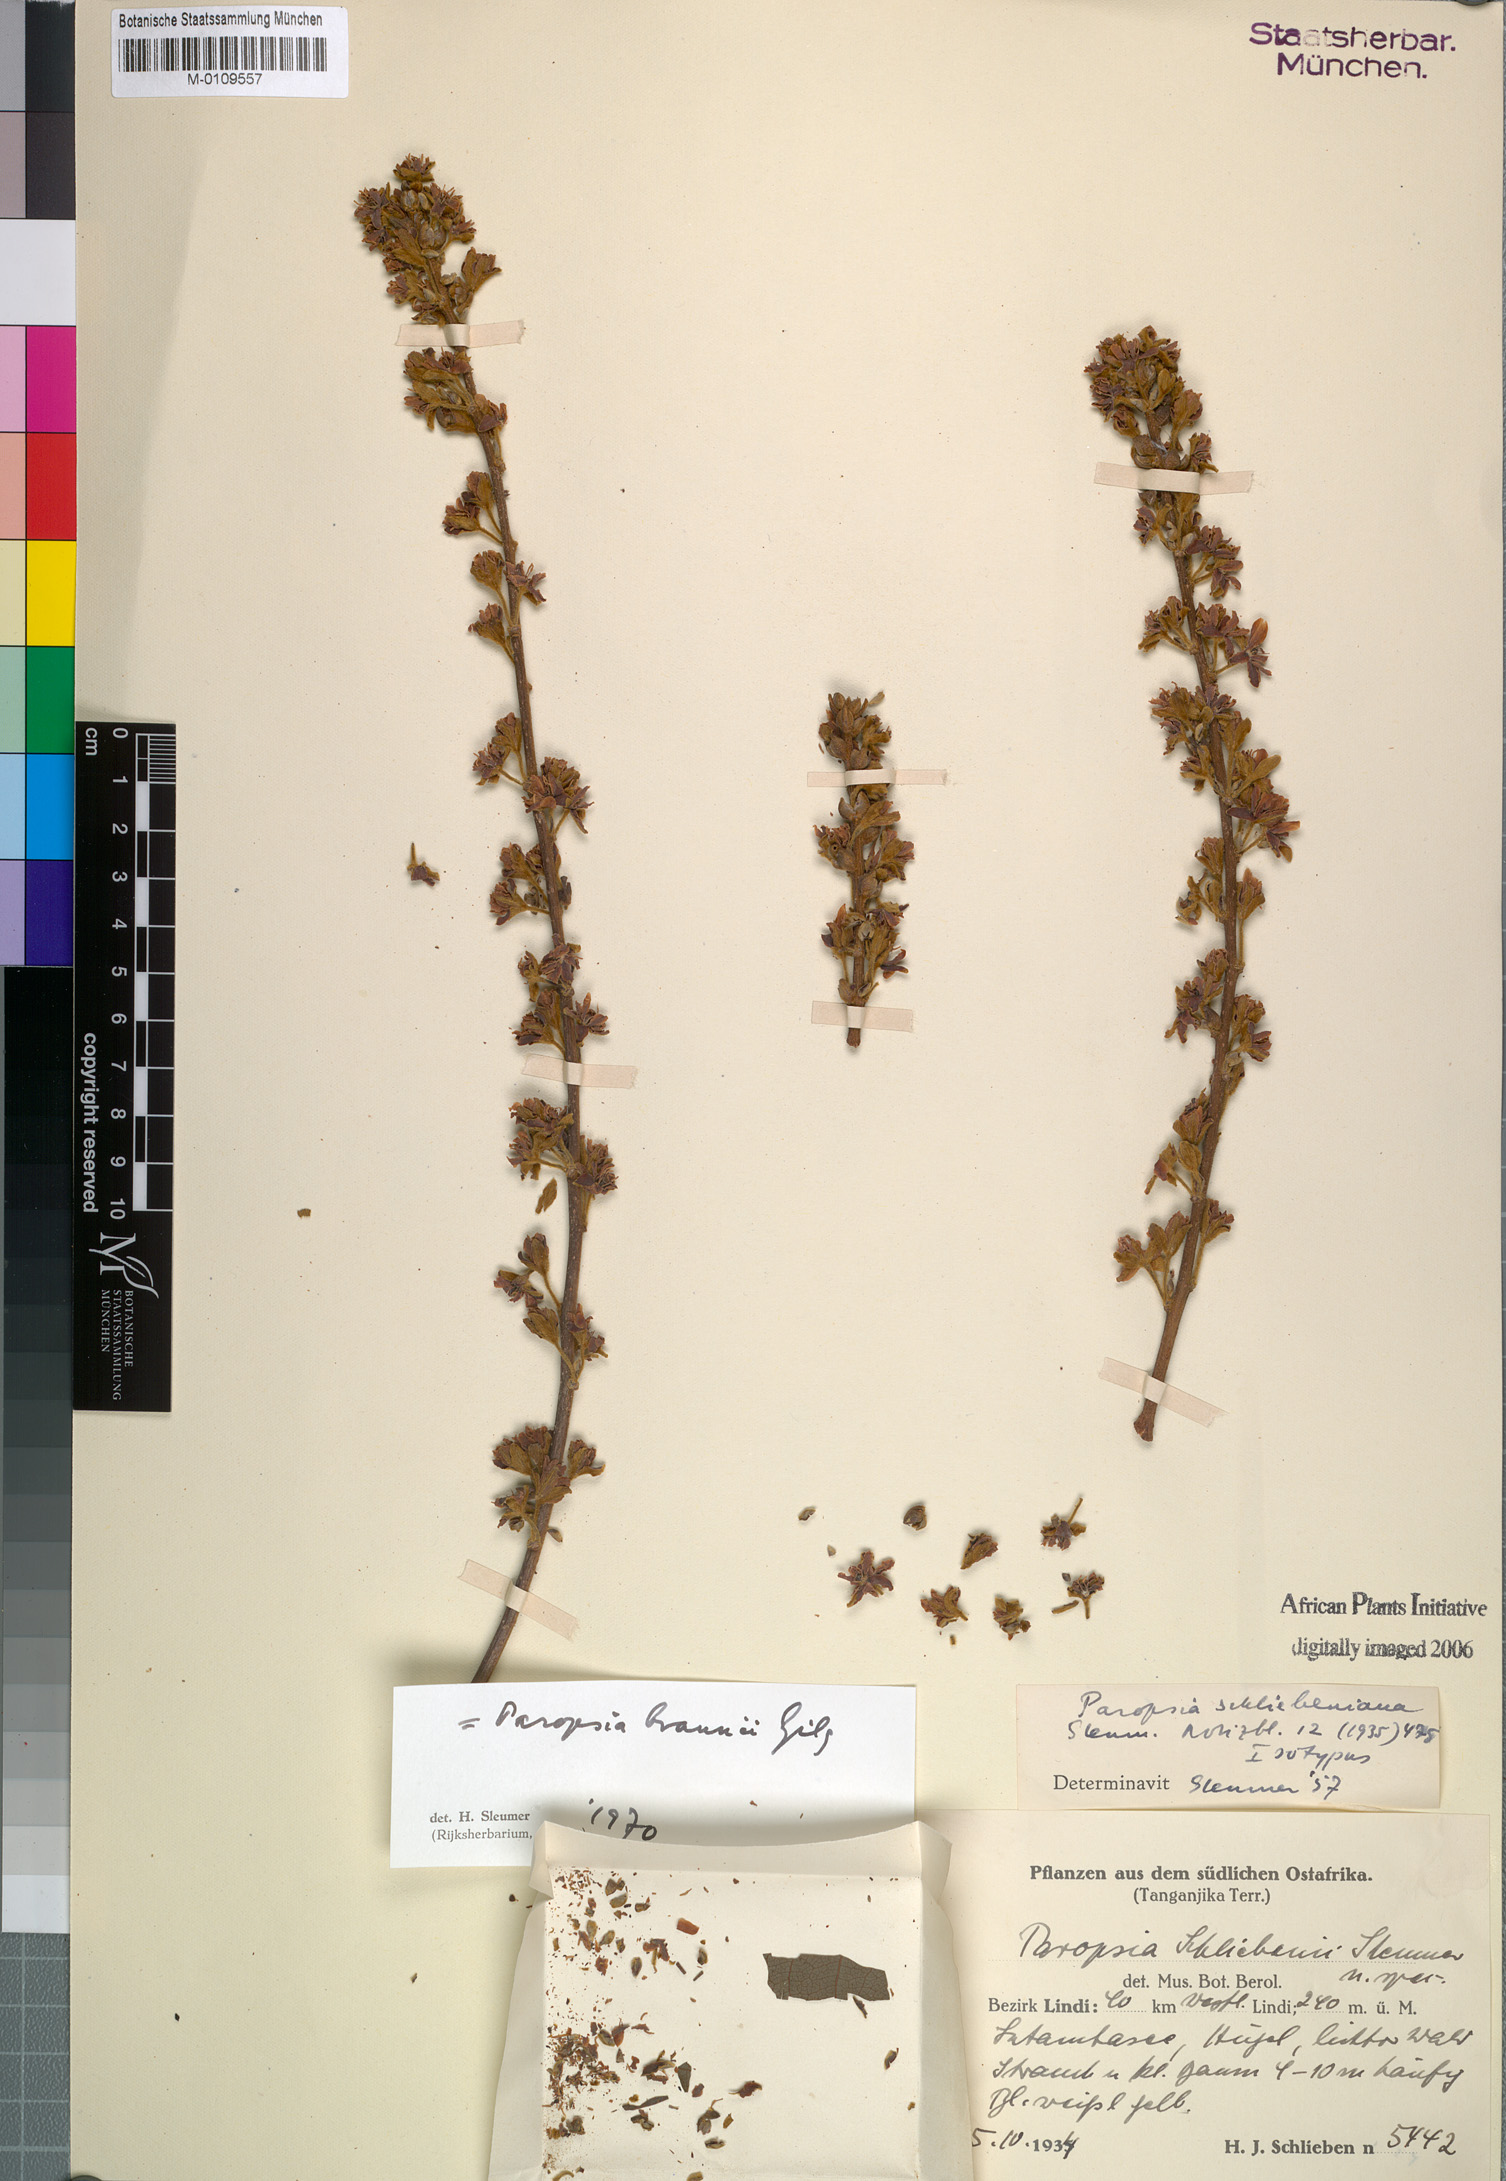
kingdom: Plantae
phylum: Tracheophyta
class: Magnoliopsida
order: Malpighiales
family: Passifloraceae
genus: Paropsia
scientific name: Paropsia braunii
